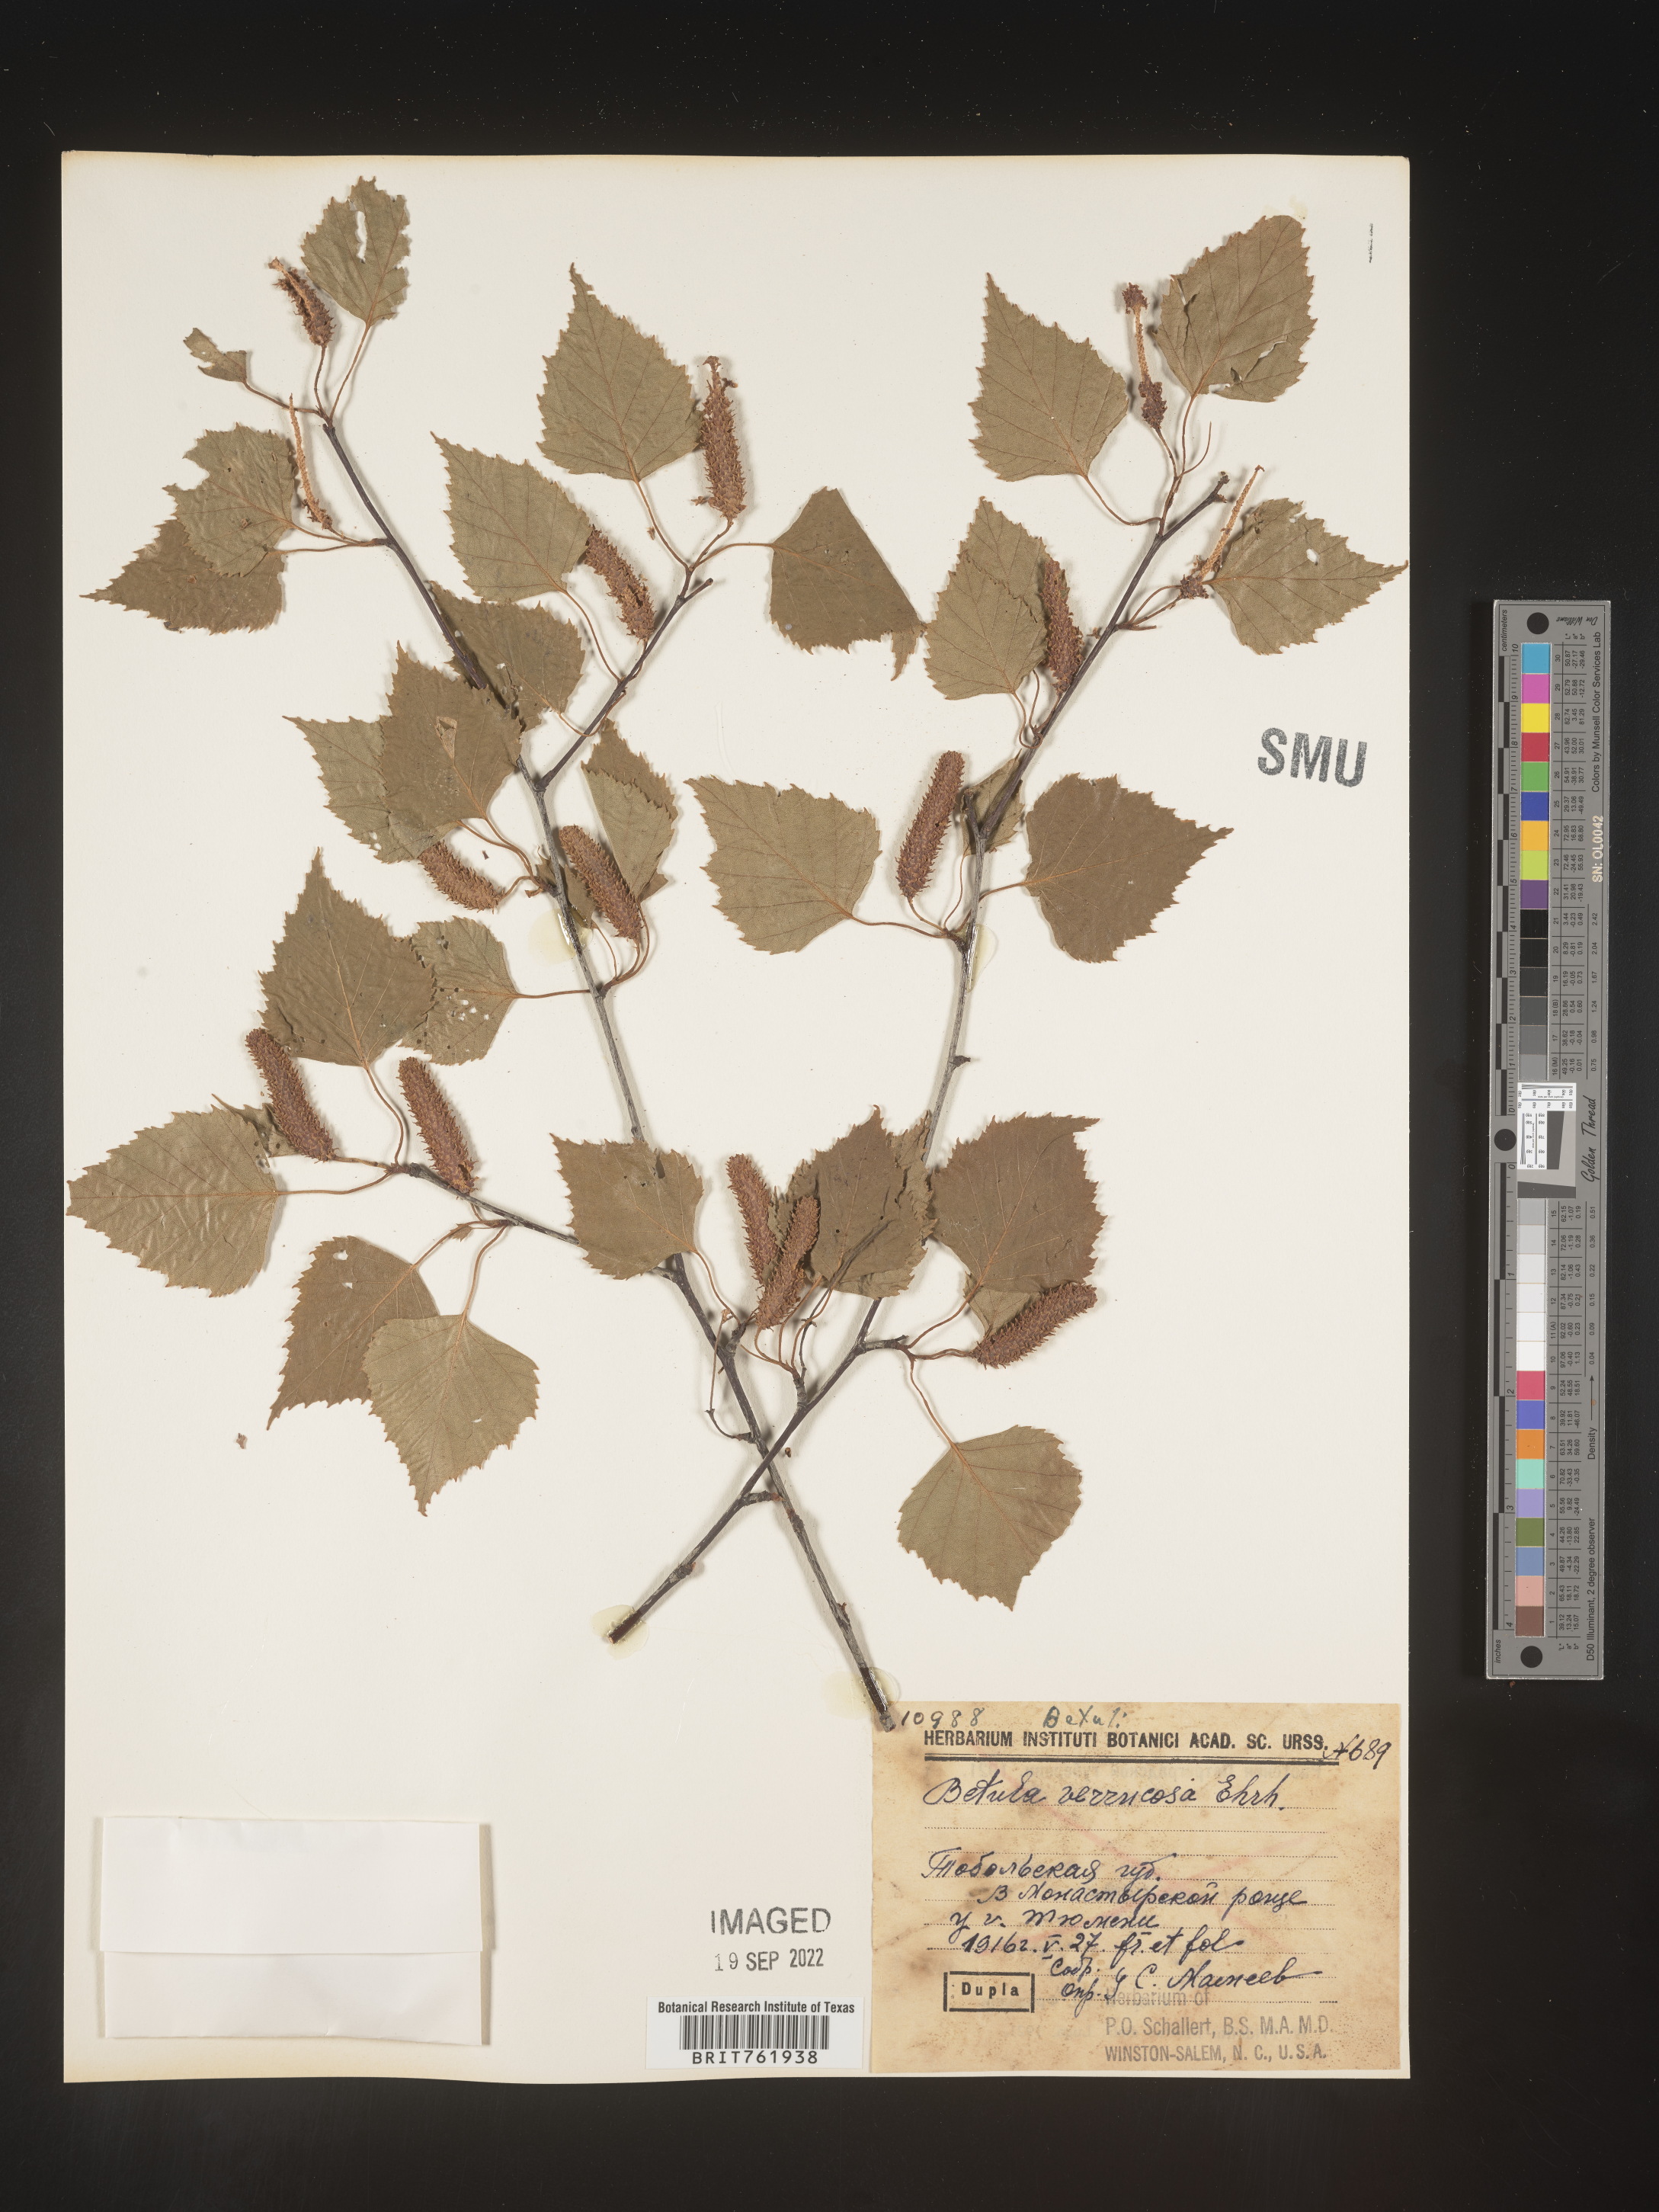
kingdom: Plantae
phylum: Tracheophyta
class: Magnoliopsida
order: Fagales
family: Betulaceae
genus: Betula
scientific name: Betula
